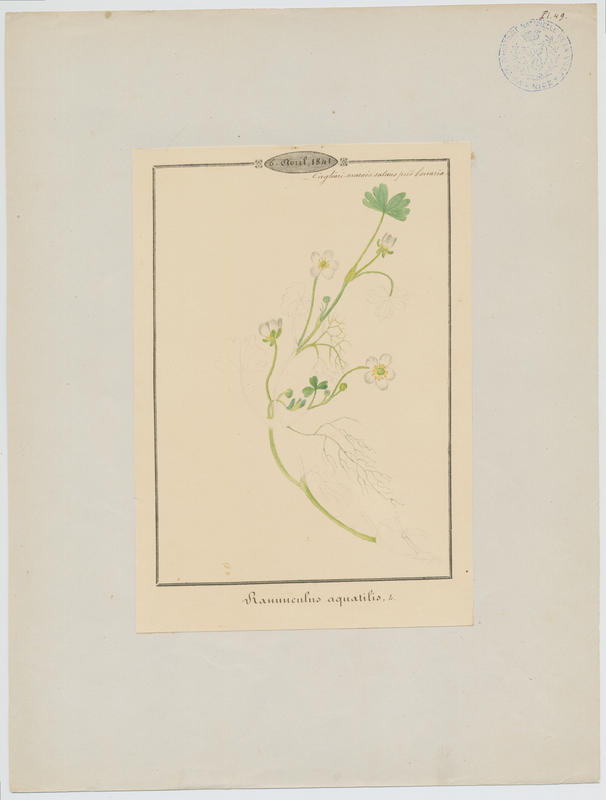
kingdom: Plantae
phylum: Tracheophyta
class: Magnoliopsida
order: Ranunculales
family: Ranunculaceae
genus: Ranunculus
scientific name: Ranunculus aquatilis
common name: Common water-crowfoot
